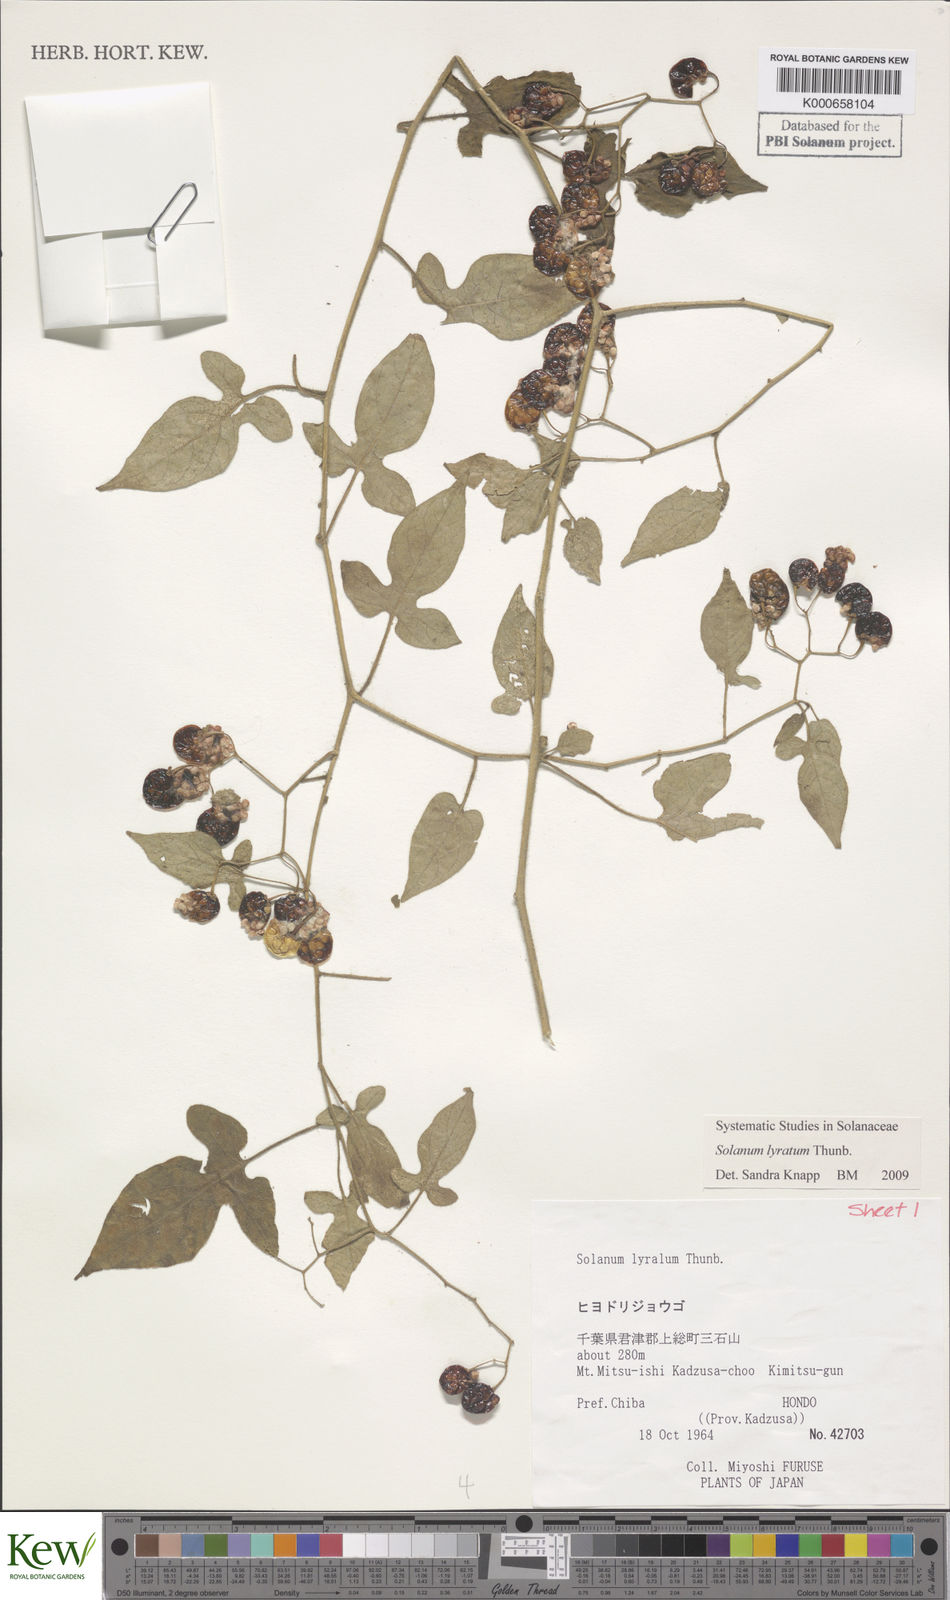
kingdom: Plantae
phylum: Tracheophyta
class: Magnoliopsida
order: Solanales
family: Solanaceae
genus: Solanum
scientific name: Solanum lyratum
